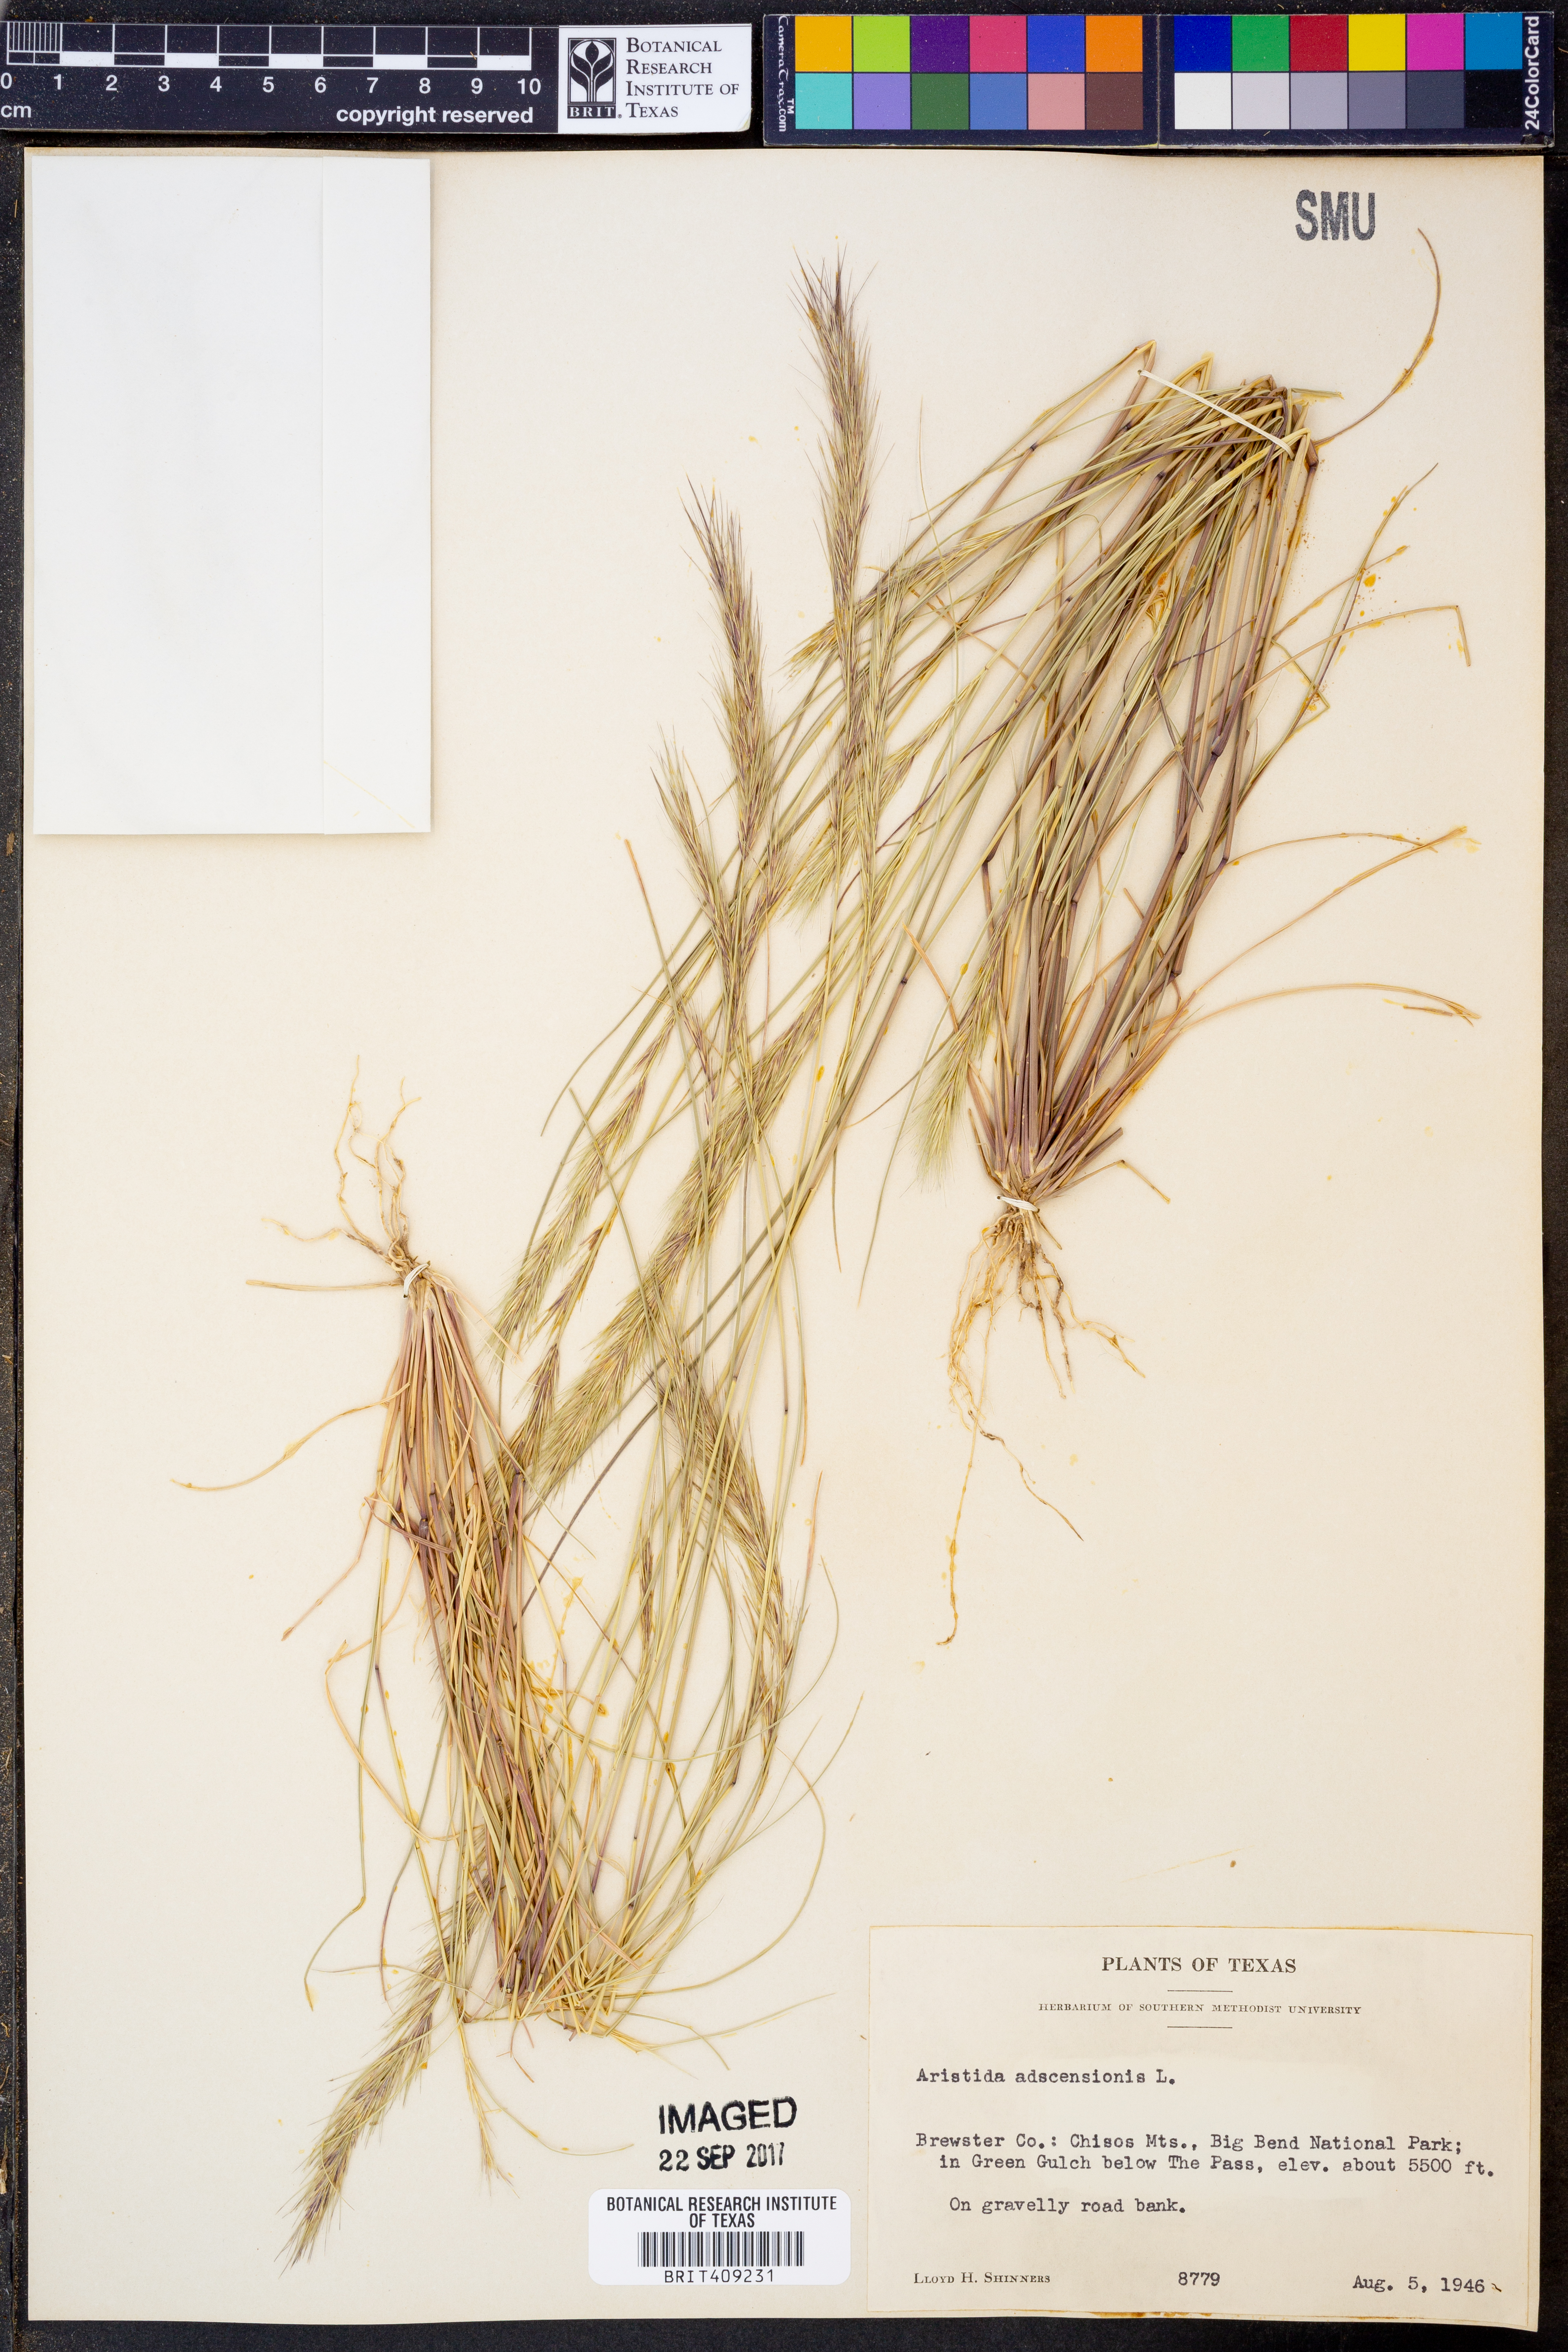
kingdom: Plantae
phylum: Tracheophyta
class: Liliopsida
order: Poales
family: Poaceae
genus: Aristida
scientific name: Aristida adscensionis
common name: Sixweeks threeawn
